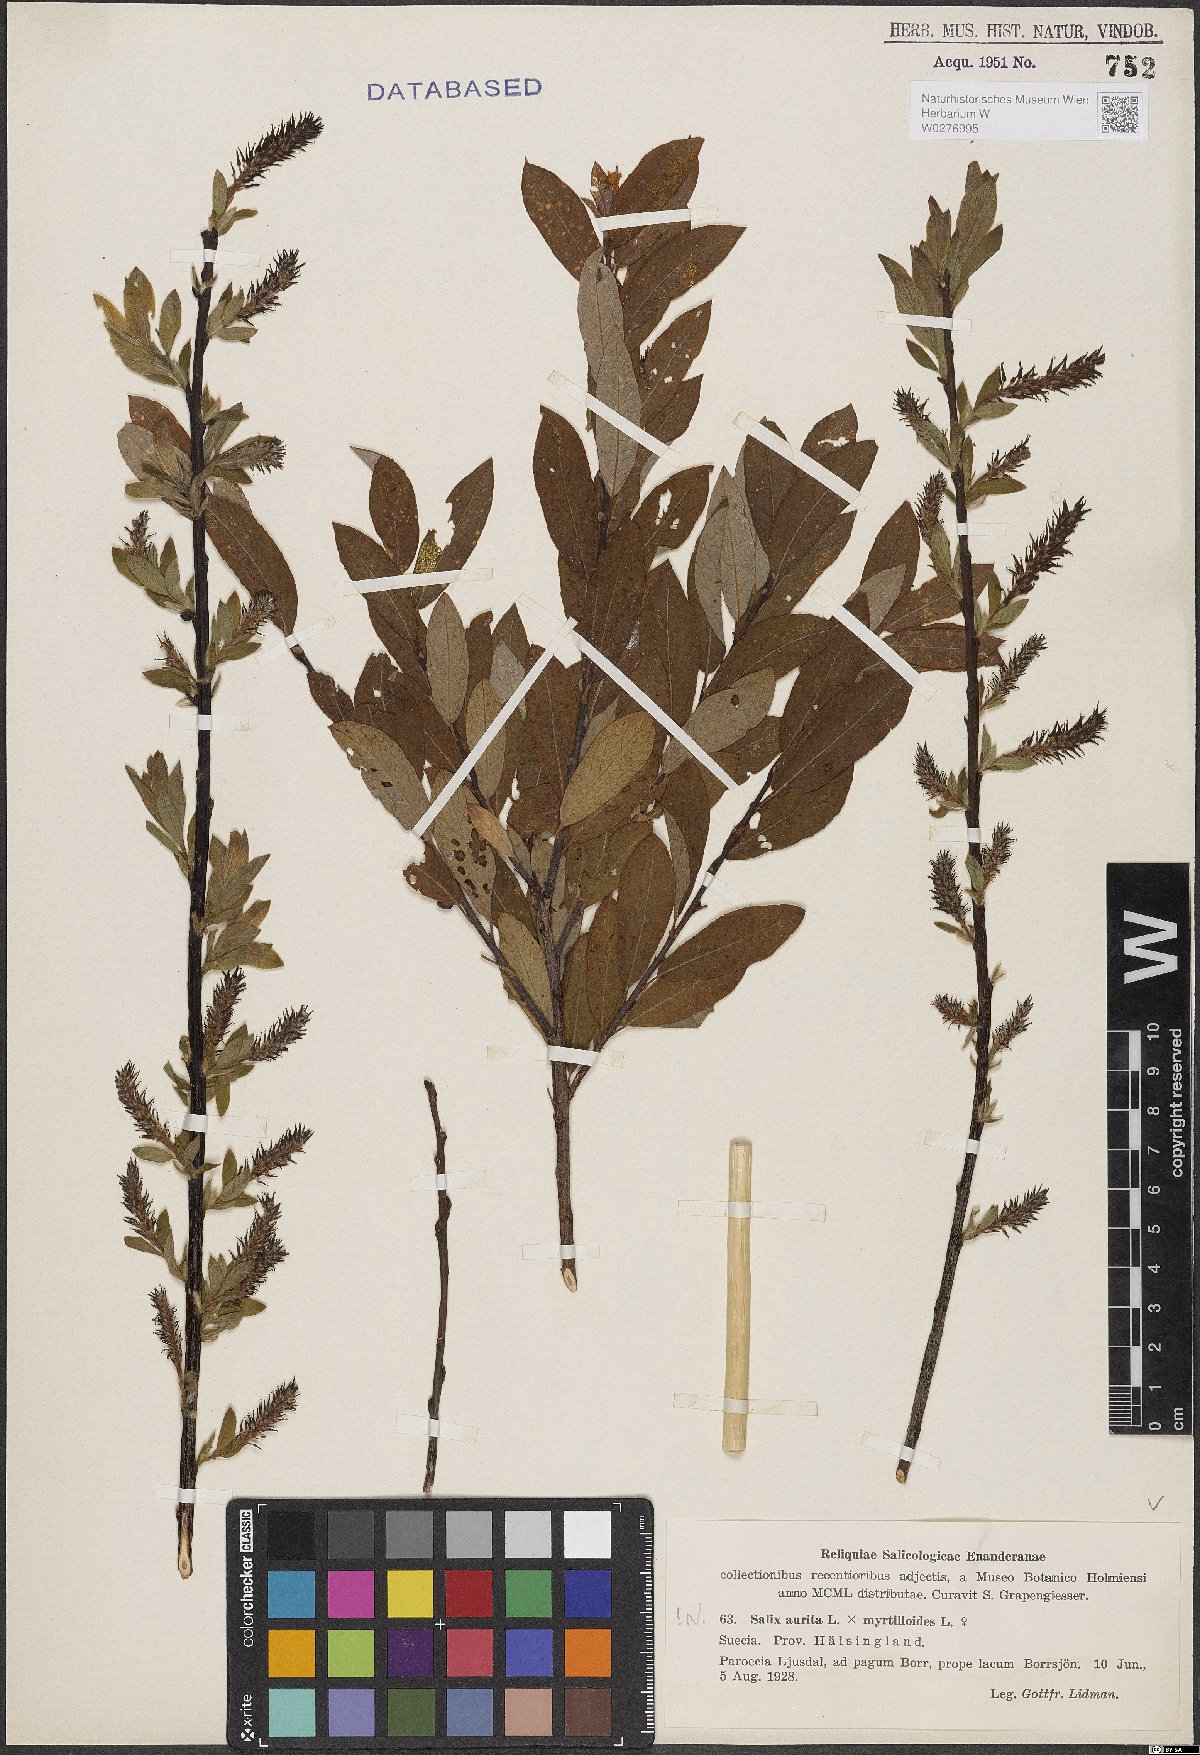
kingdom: Plantae
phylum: Tracheophyta
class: Magnoliopsida
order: Malpighiales
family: Salicaceae
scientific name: Salicaceae
